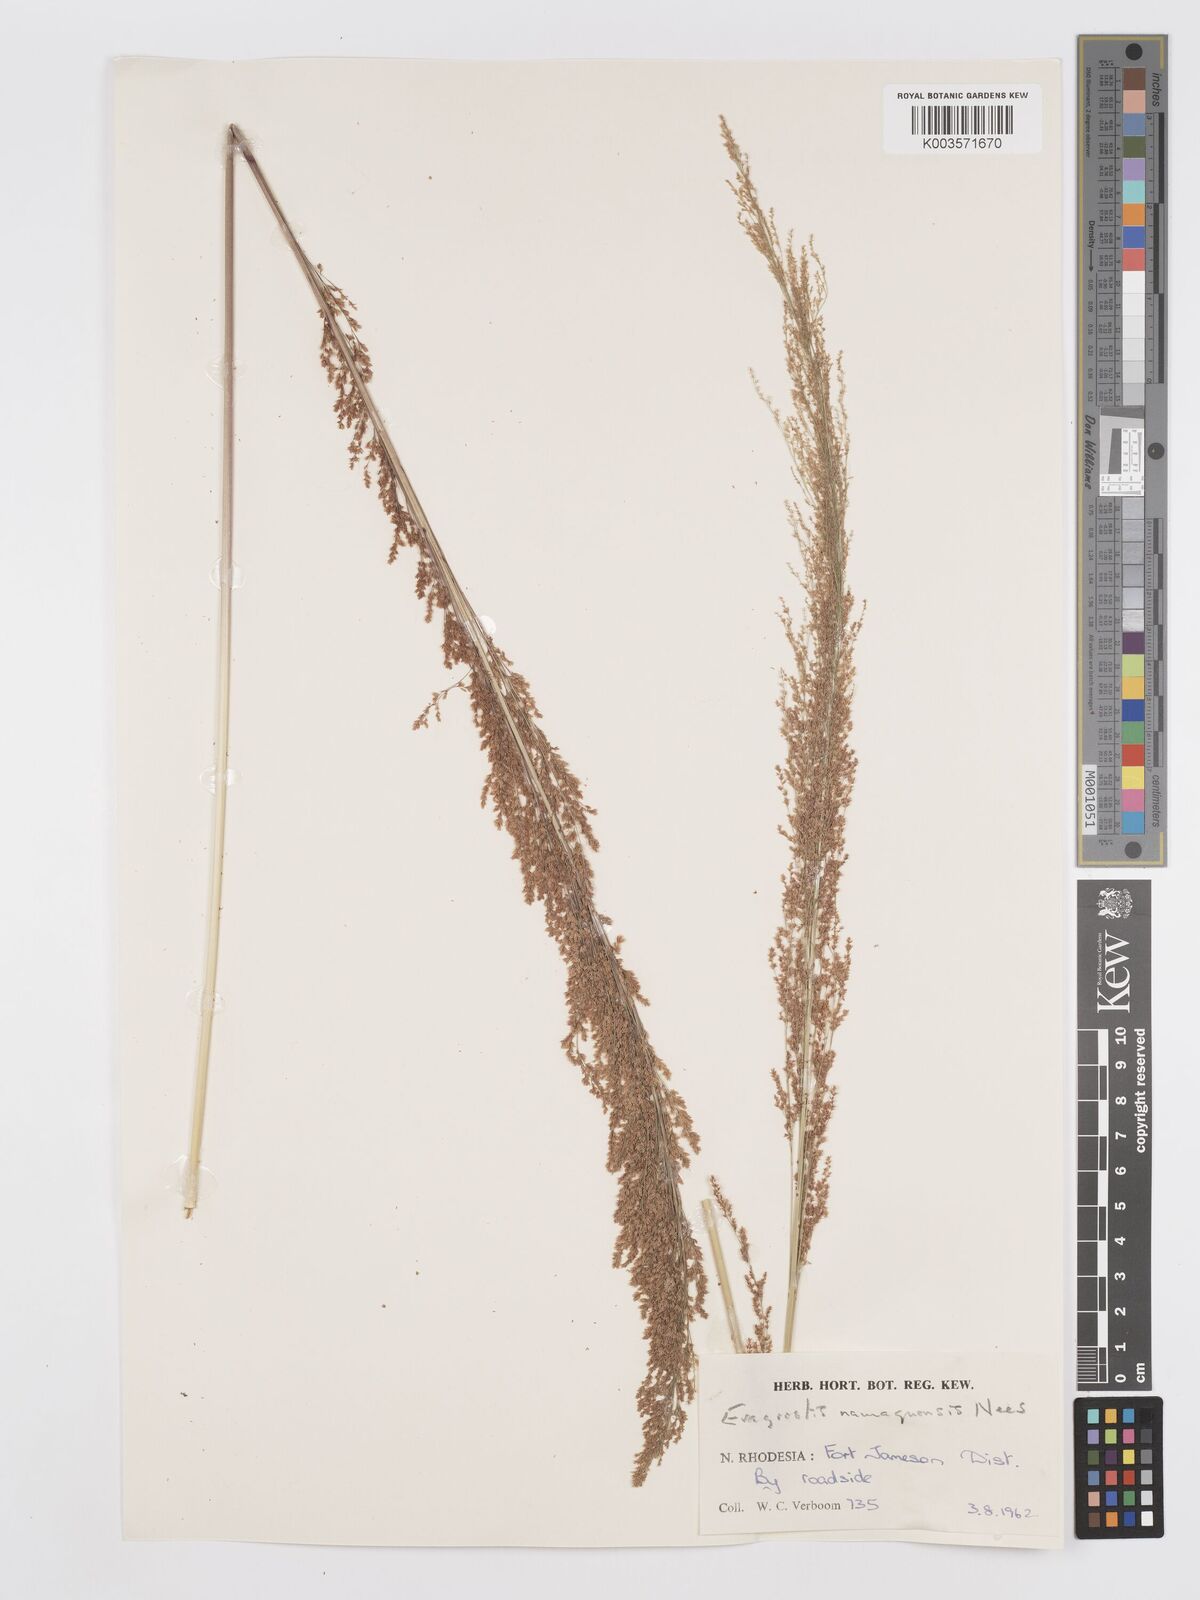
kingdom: Plantae
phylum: Tracheophyta
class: Liliopsida
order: Poales
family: Poaceae
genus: Eragrostis
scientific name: Eragrostis japonica
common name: Pond lovegrass
